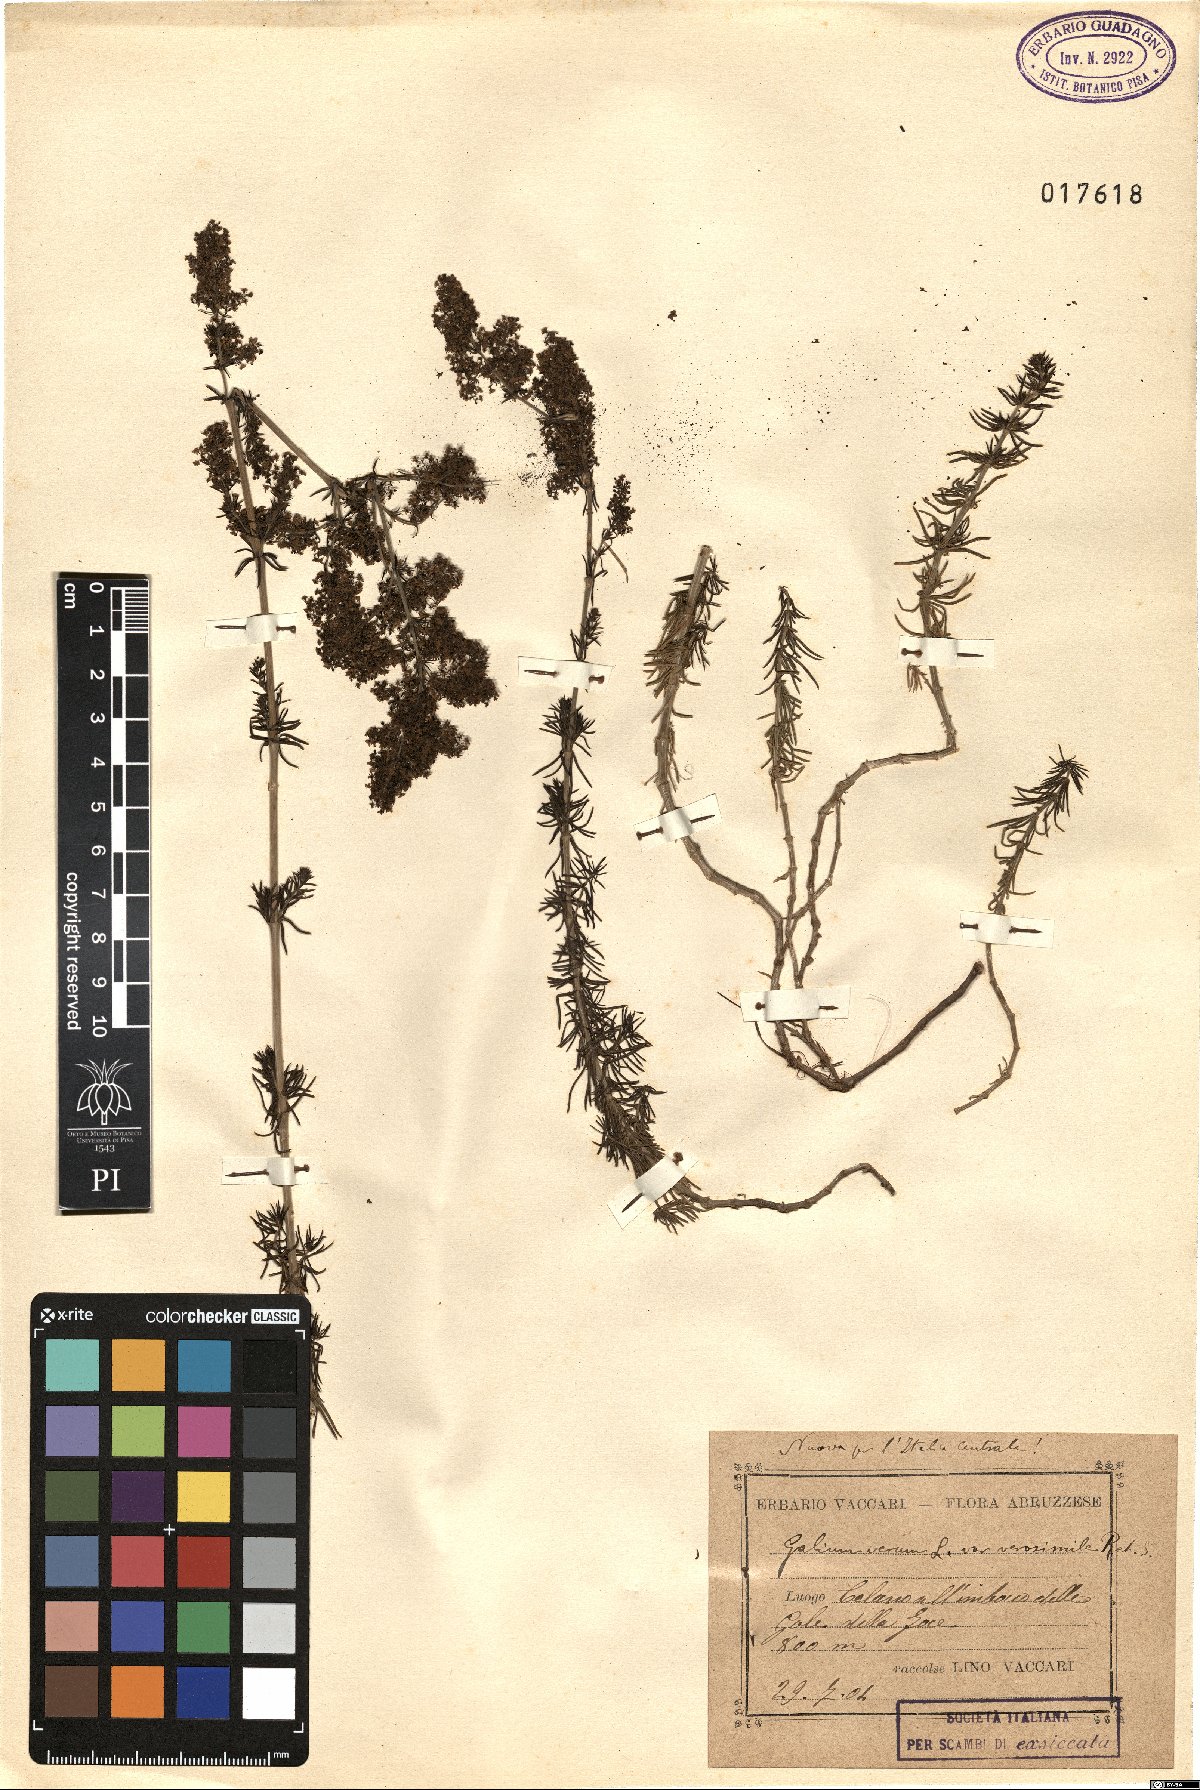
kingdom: Plantae
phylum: Tracheophyta
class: Magnoliopsida
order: Gentianales
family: Rubiaceae
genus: Galium
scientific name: Galium verum
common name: Lady's bedstraw
